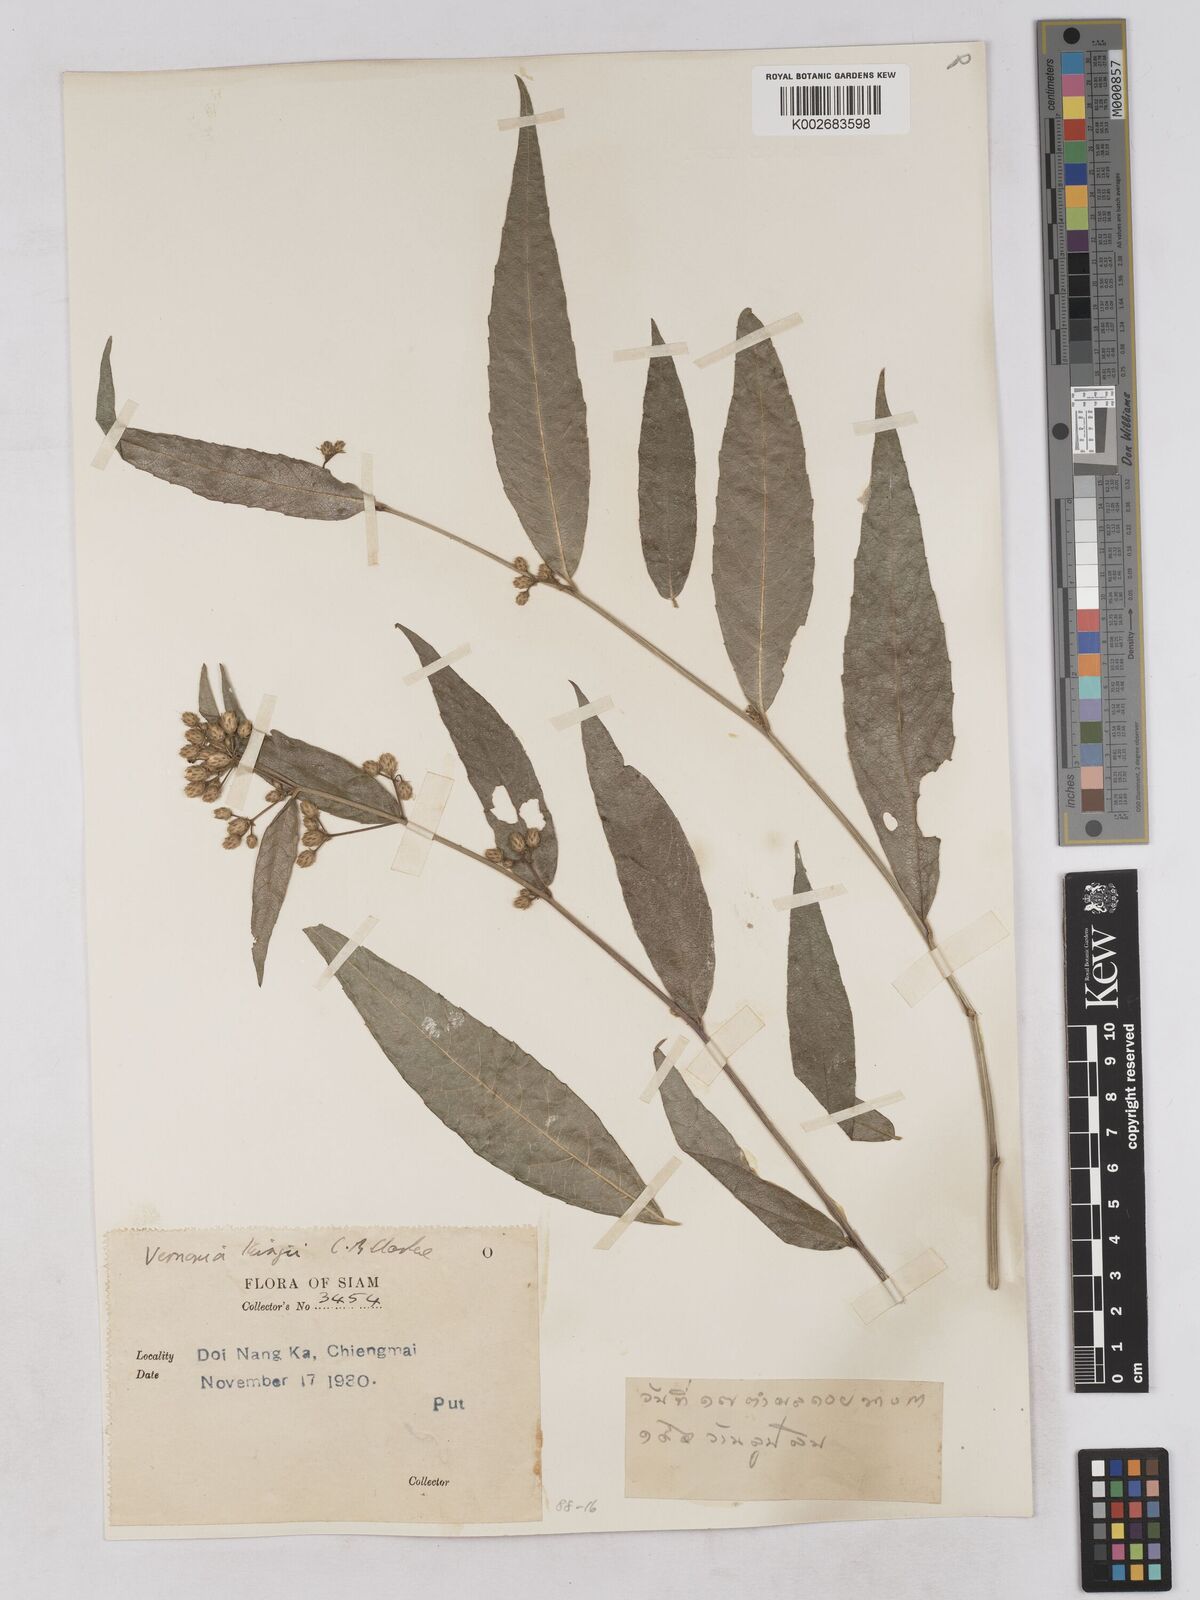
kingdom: Plantae
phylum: Tracheophyta
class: Magnoliopsida
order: Asterales
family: Asteraceae
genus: Acilepis
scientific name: Acilepis kingii
